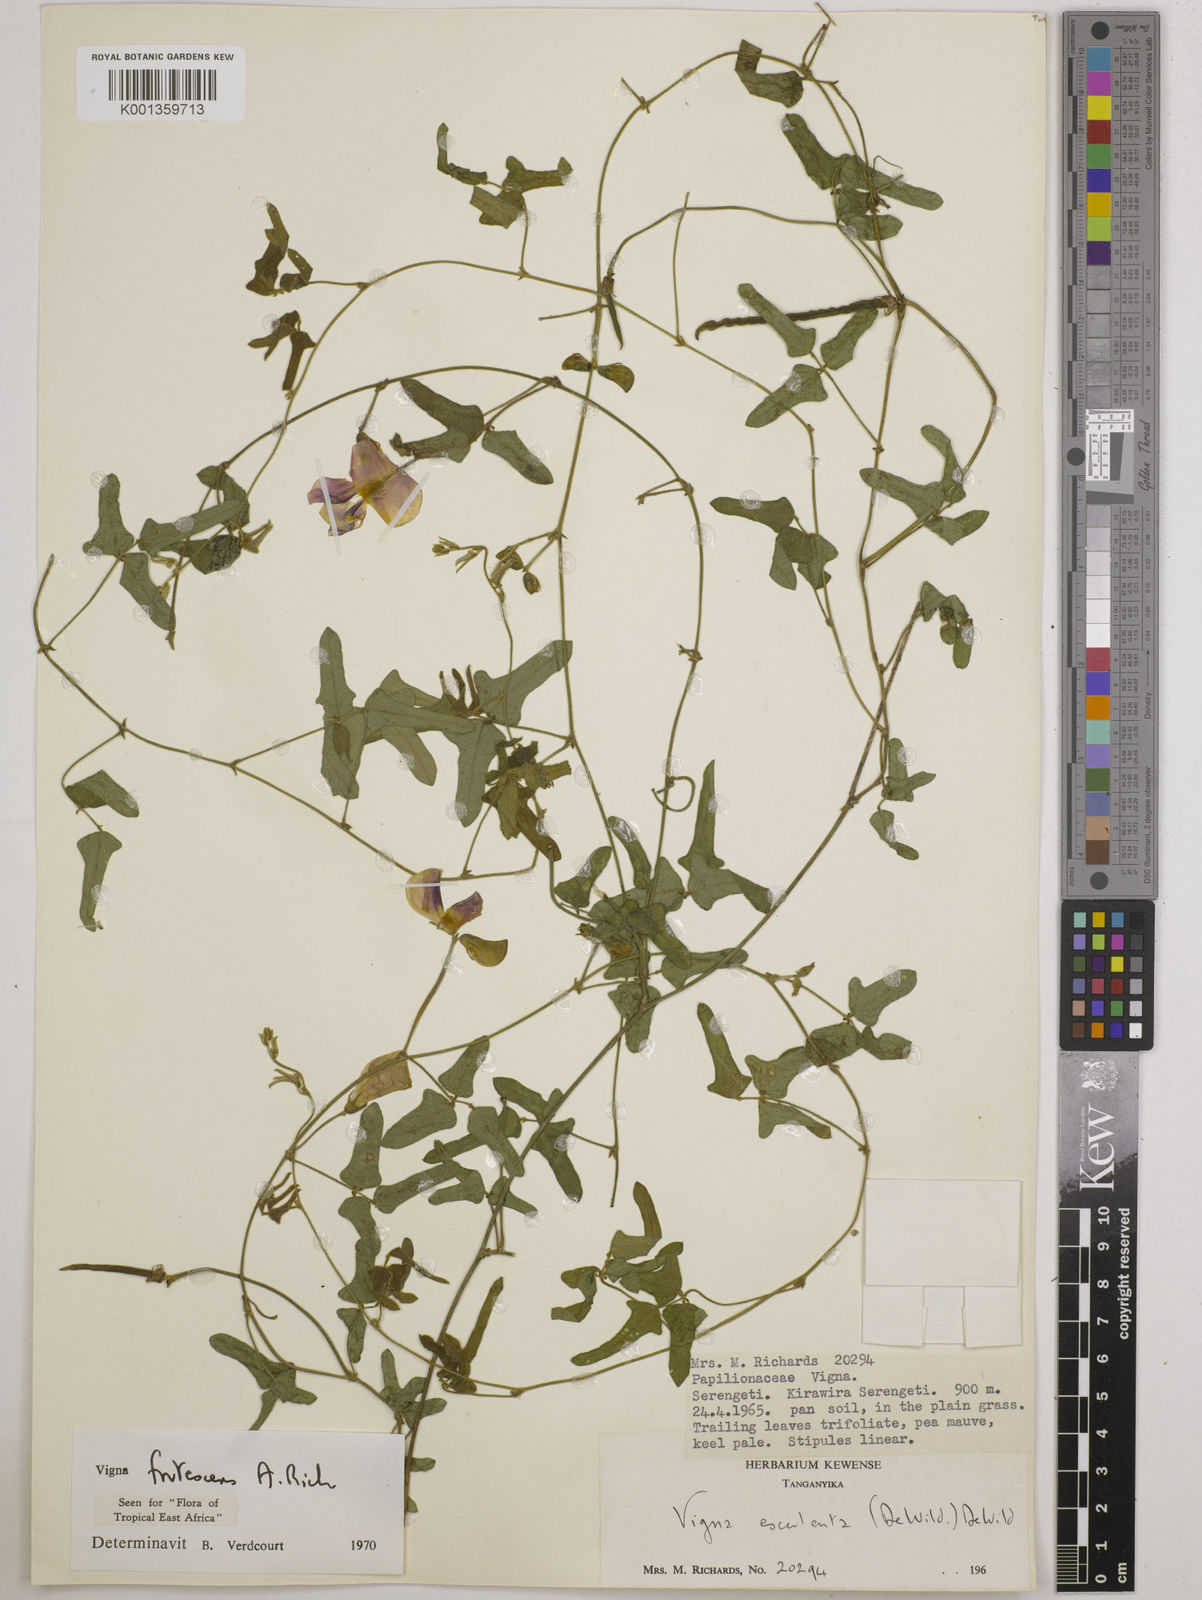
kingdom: Plantae
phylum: Tracheophyta
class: Magnoliopsida
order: Fabales
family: Fabaceae
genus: Vigna
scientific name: Vigna frutescens
